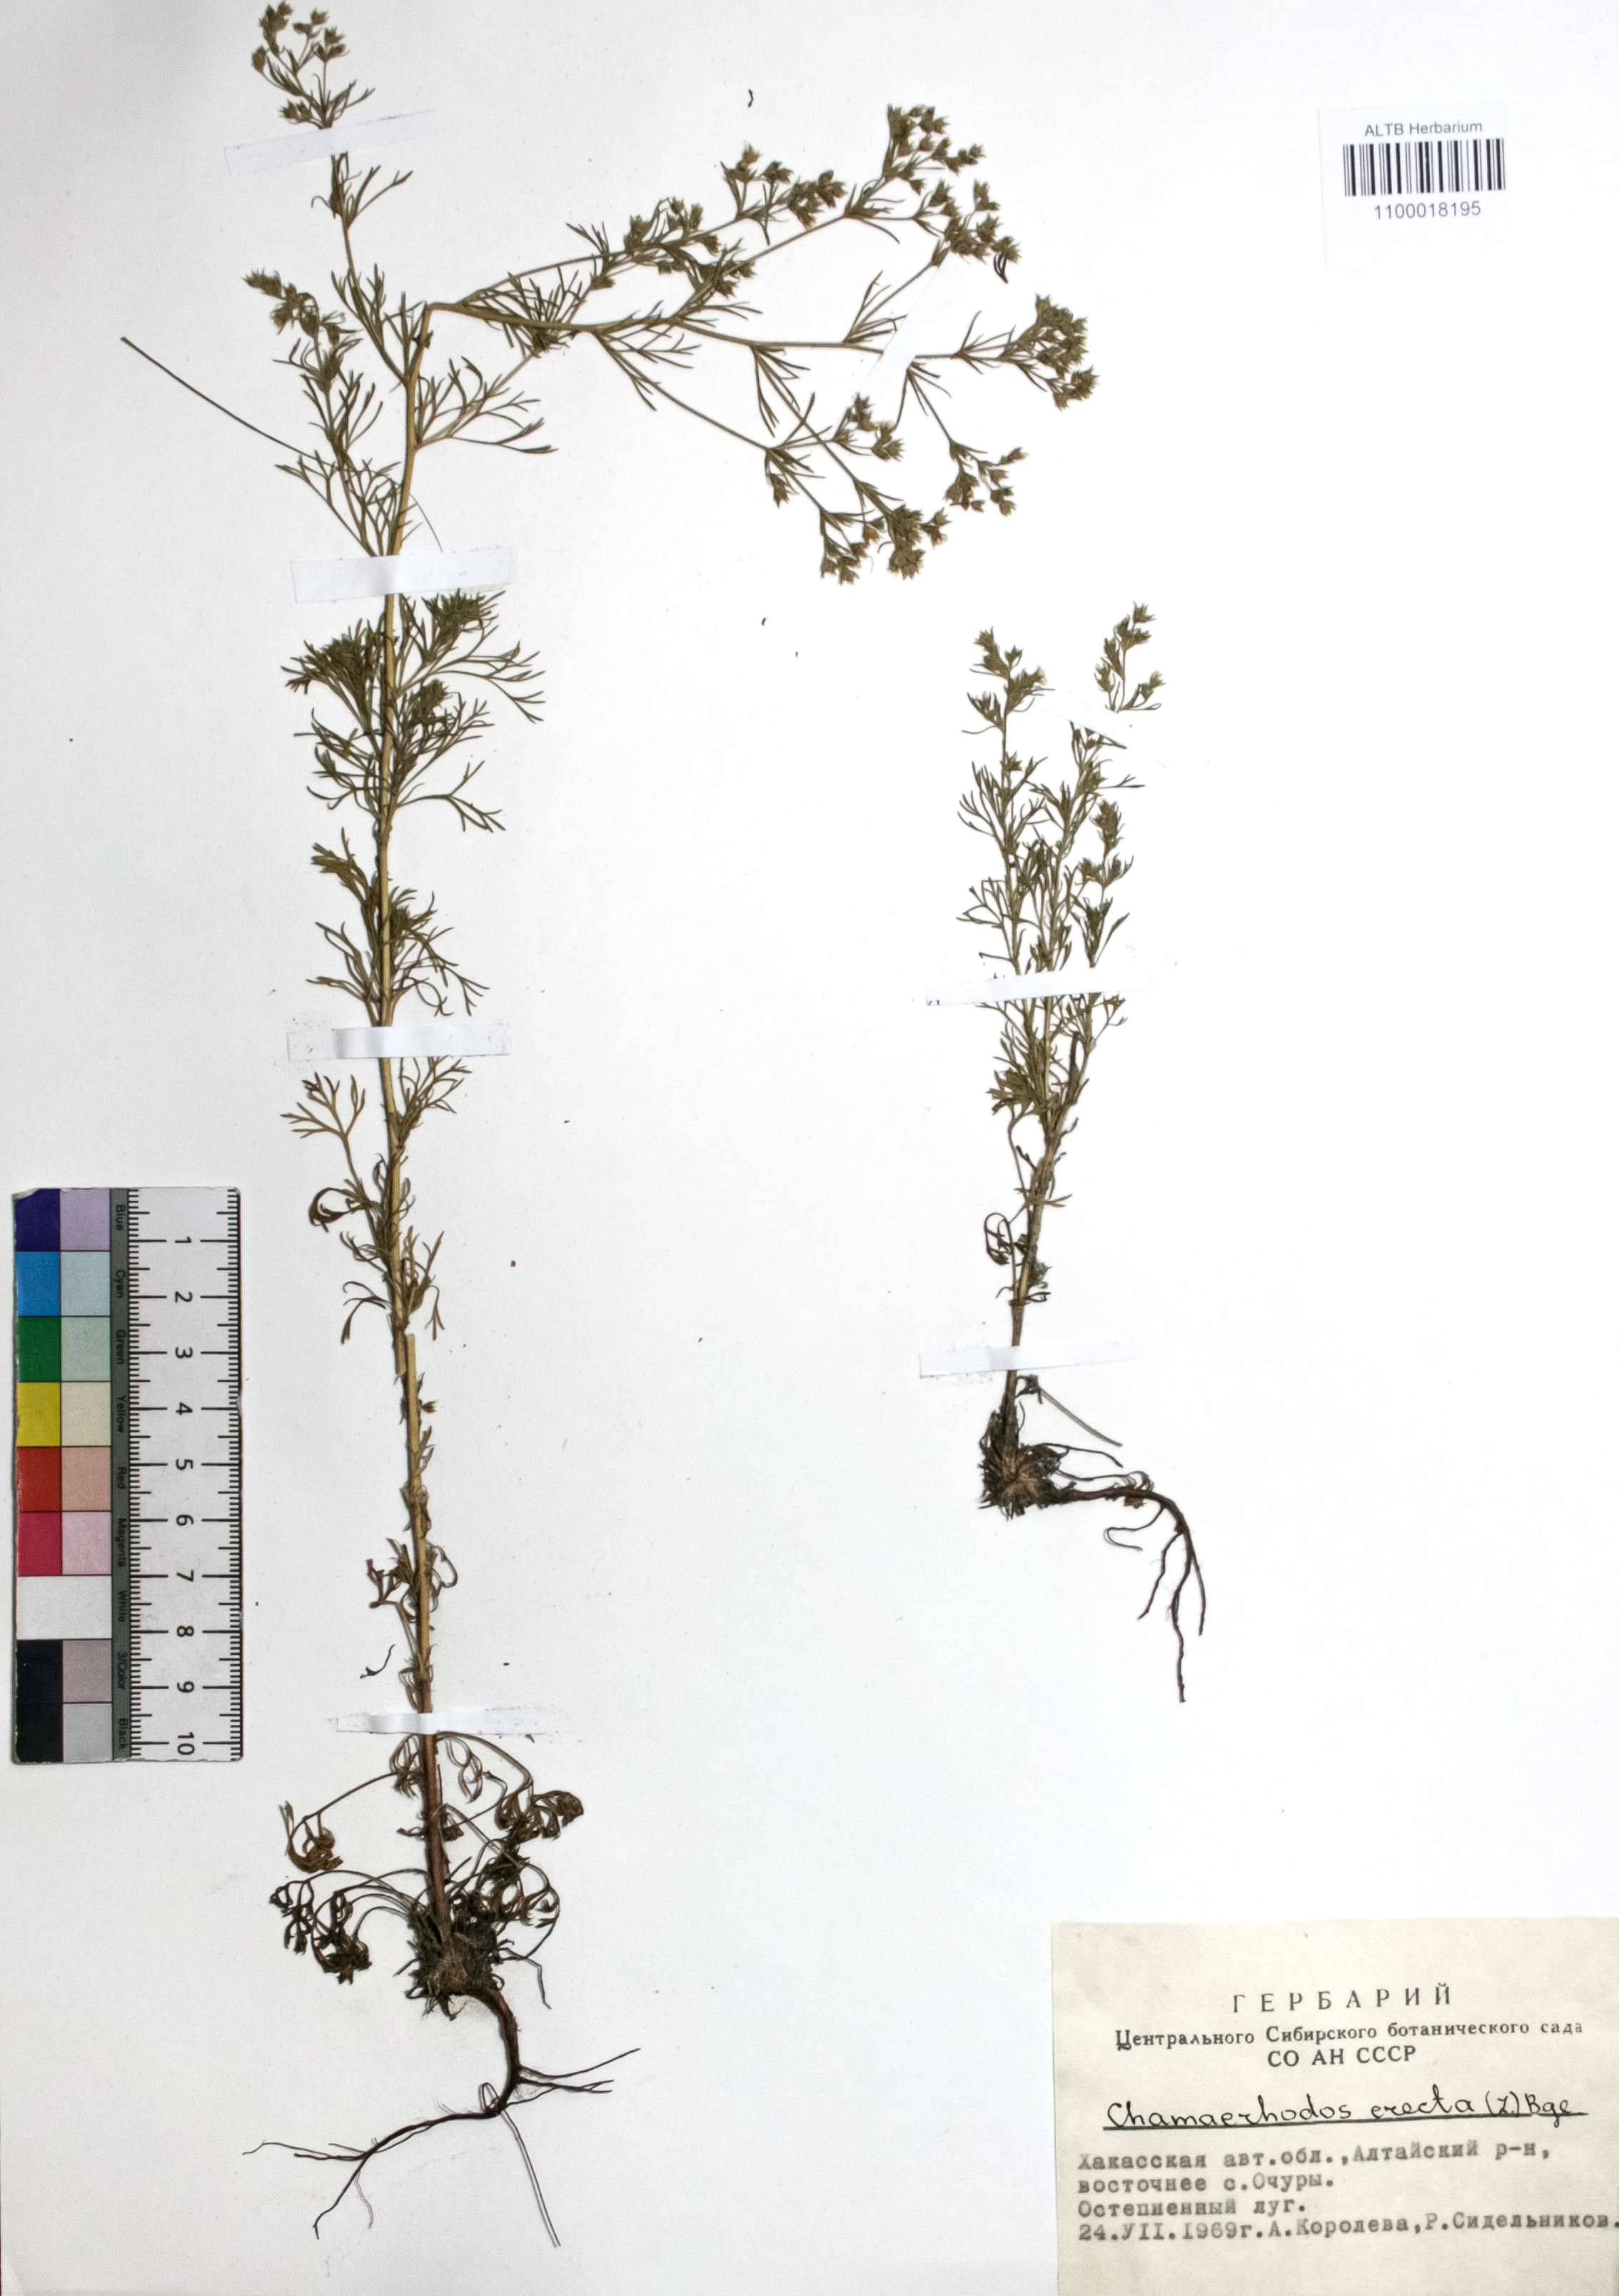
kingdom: Plantae
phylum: Tracheophyta
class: Magnoliopsida
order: Rosales
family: Rosaceae
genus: Chamaerhodos
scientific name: Chamaerhodos erecta
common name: American chamaerhodos
